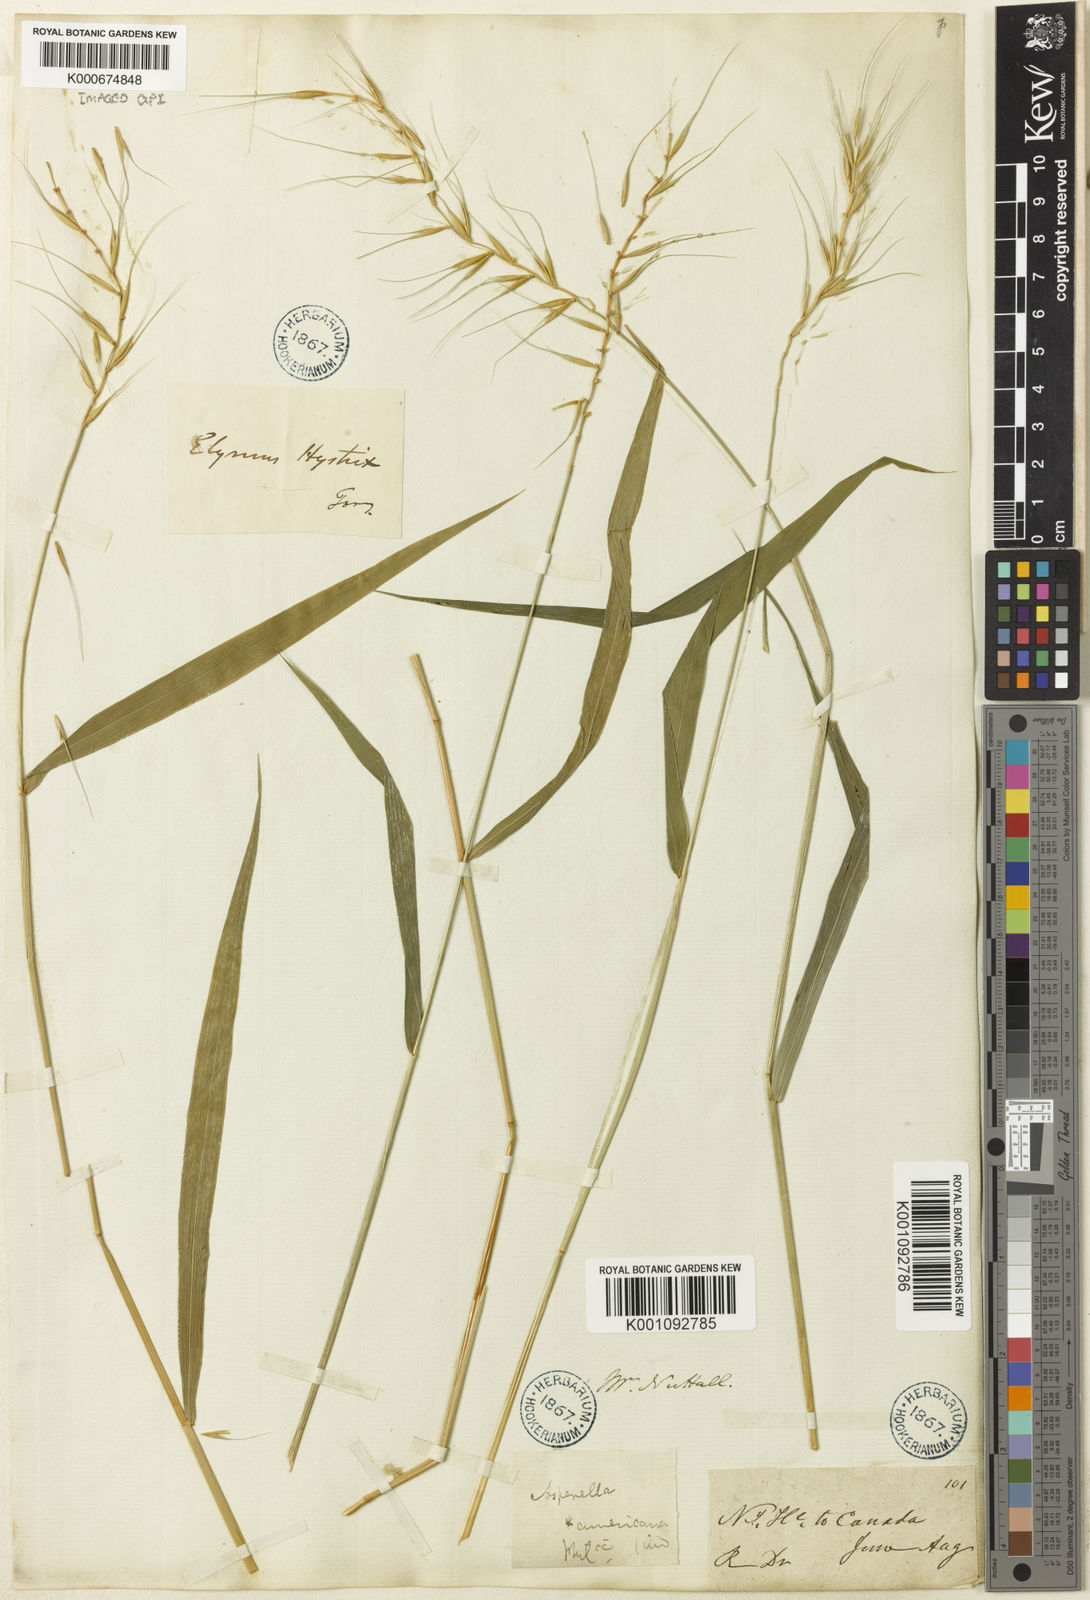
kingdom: Plantae
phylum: Tracheophyta
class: Liliopsida
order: Poales
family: Poaceae
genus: Elymus
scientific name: Elymus hystrix
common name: Bottlebrush grass
